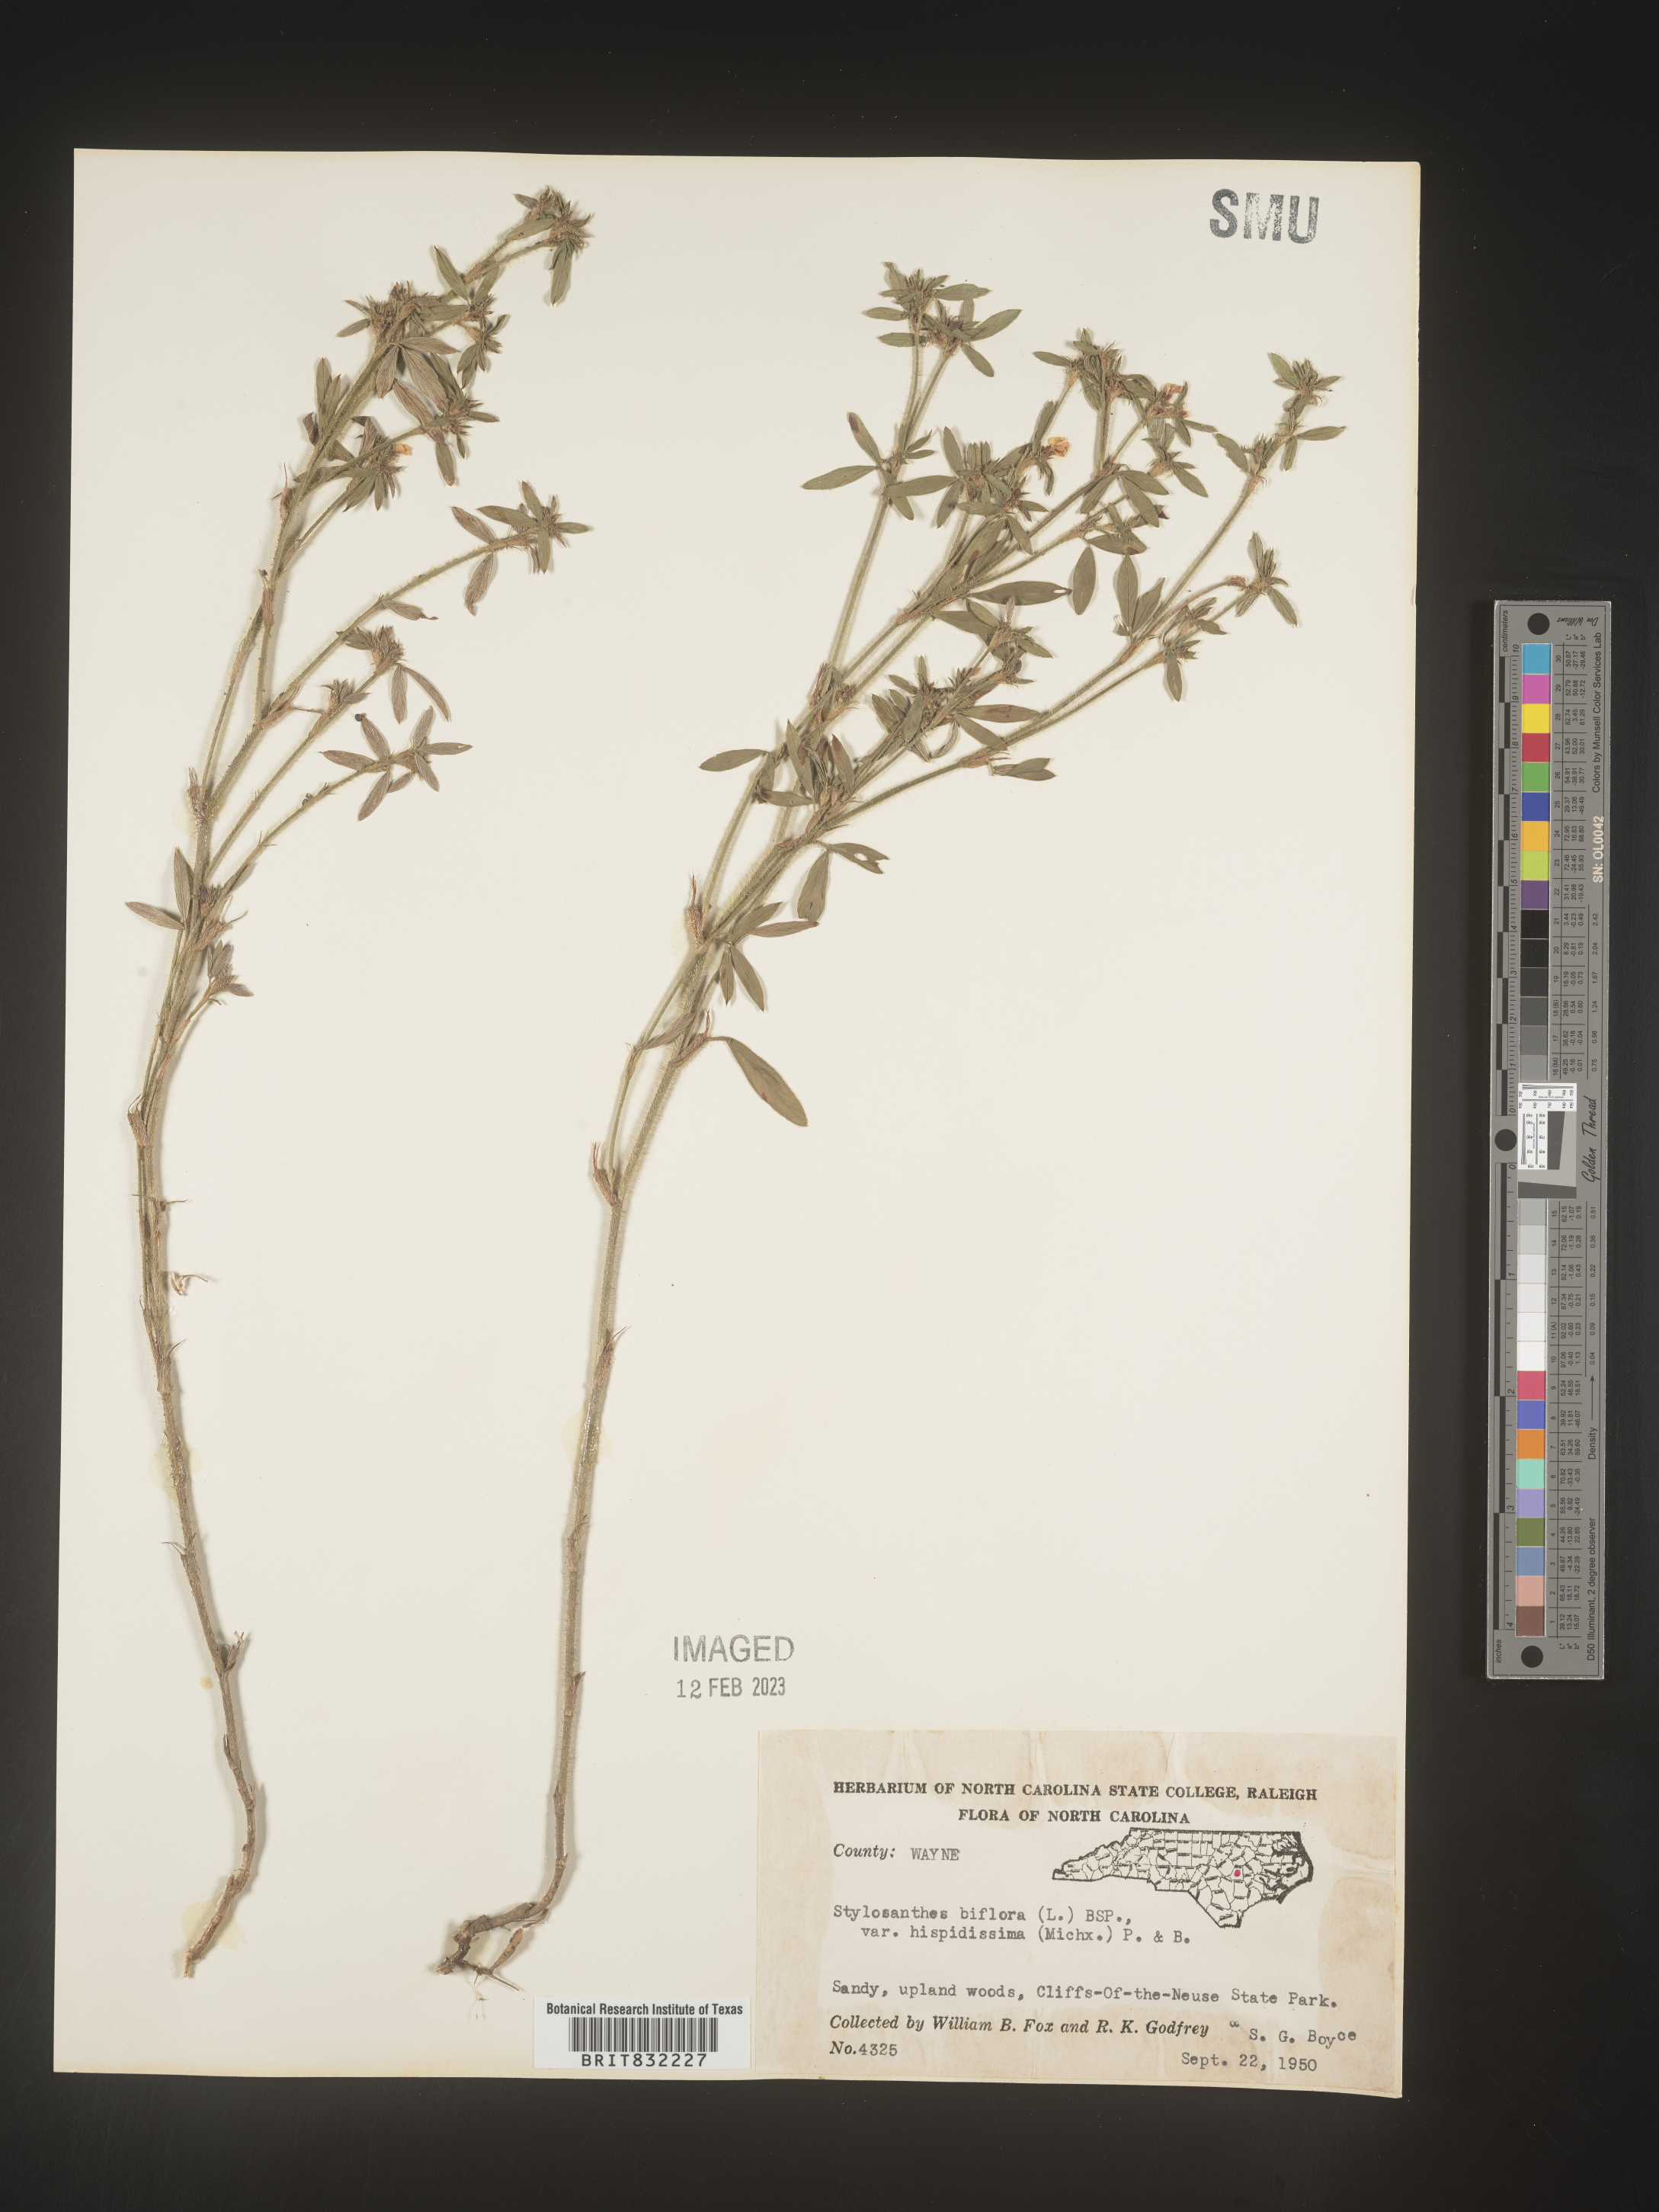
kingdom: Plantae
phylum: Tracheophyta
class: Magnoliopsida
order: Fabales
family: Fabaceae
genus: Stylosanthes
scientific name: Stylosanthes biflora
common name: Two-flower pencil-flower
